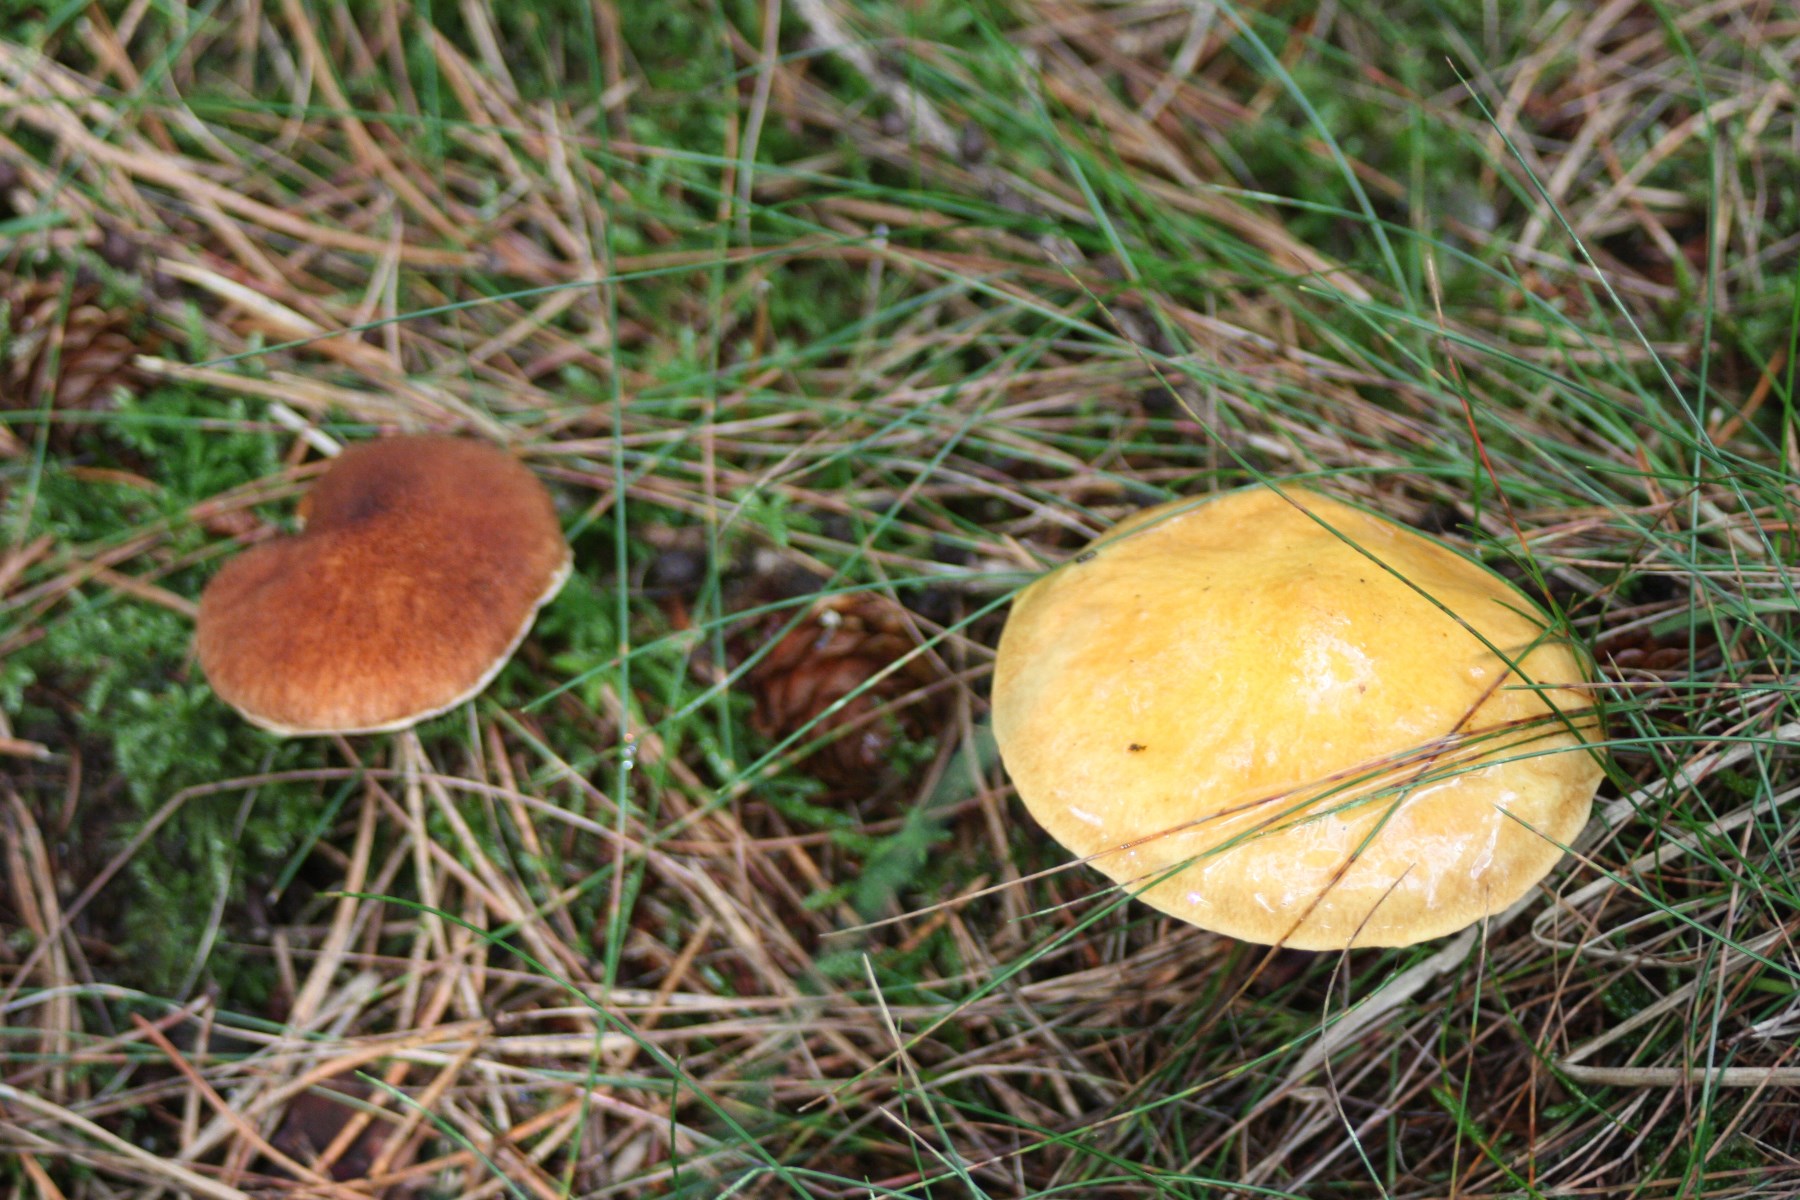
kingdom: Fungi
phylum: Basidiomycota
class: Agaricomycetes
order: Boletales
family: Suillaceae
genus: Suillus
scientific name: Suillus grevillei
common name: lærke-slimrørhat
